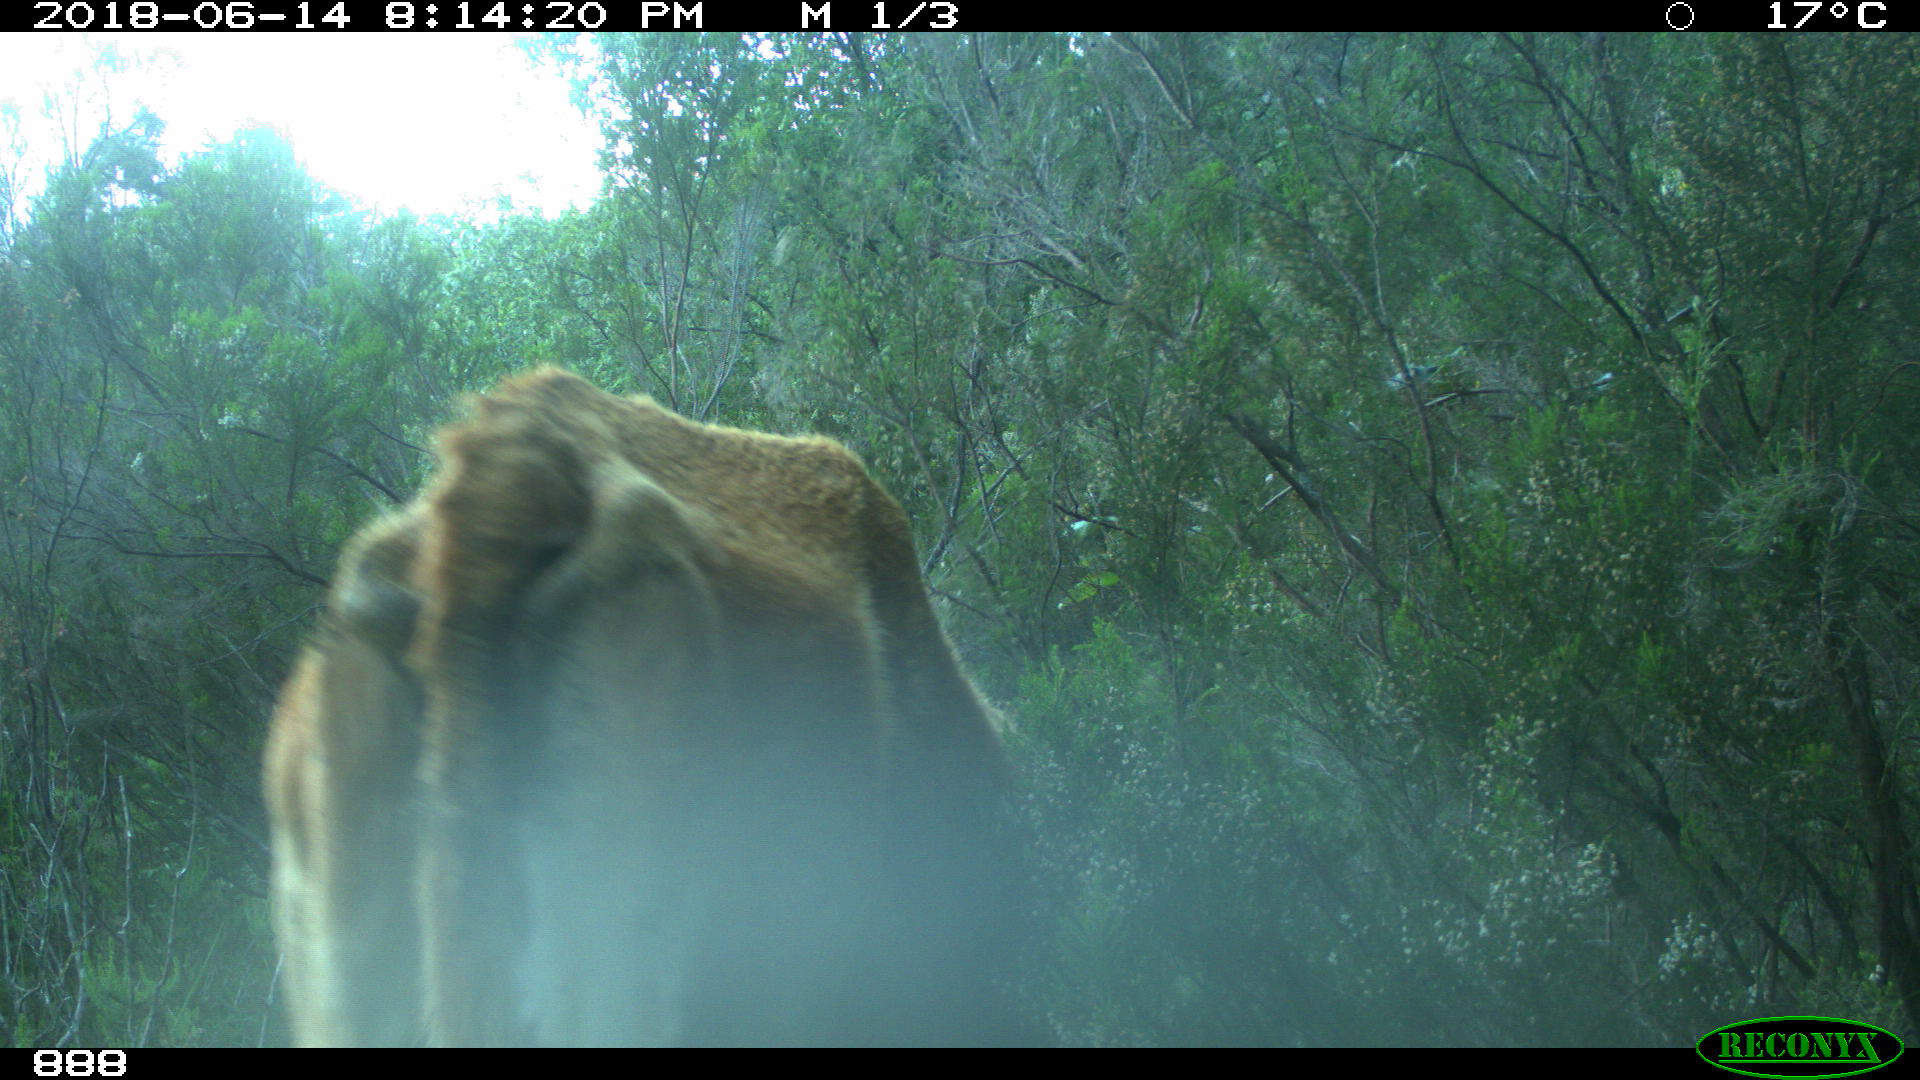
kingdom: Animalia
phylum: Chordata
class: Mammalia
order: Artiodactyla
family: Bovidae
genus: Bos
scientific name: Bos taurus
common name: Domesticated cattle
